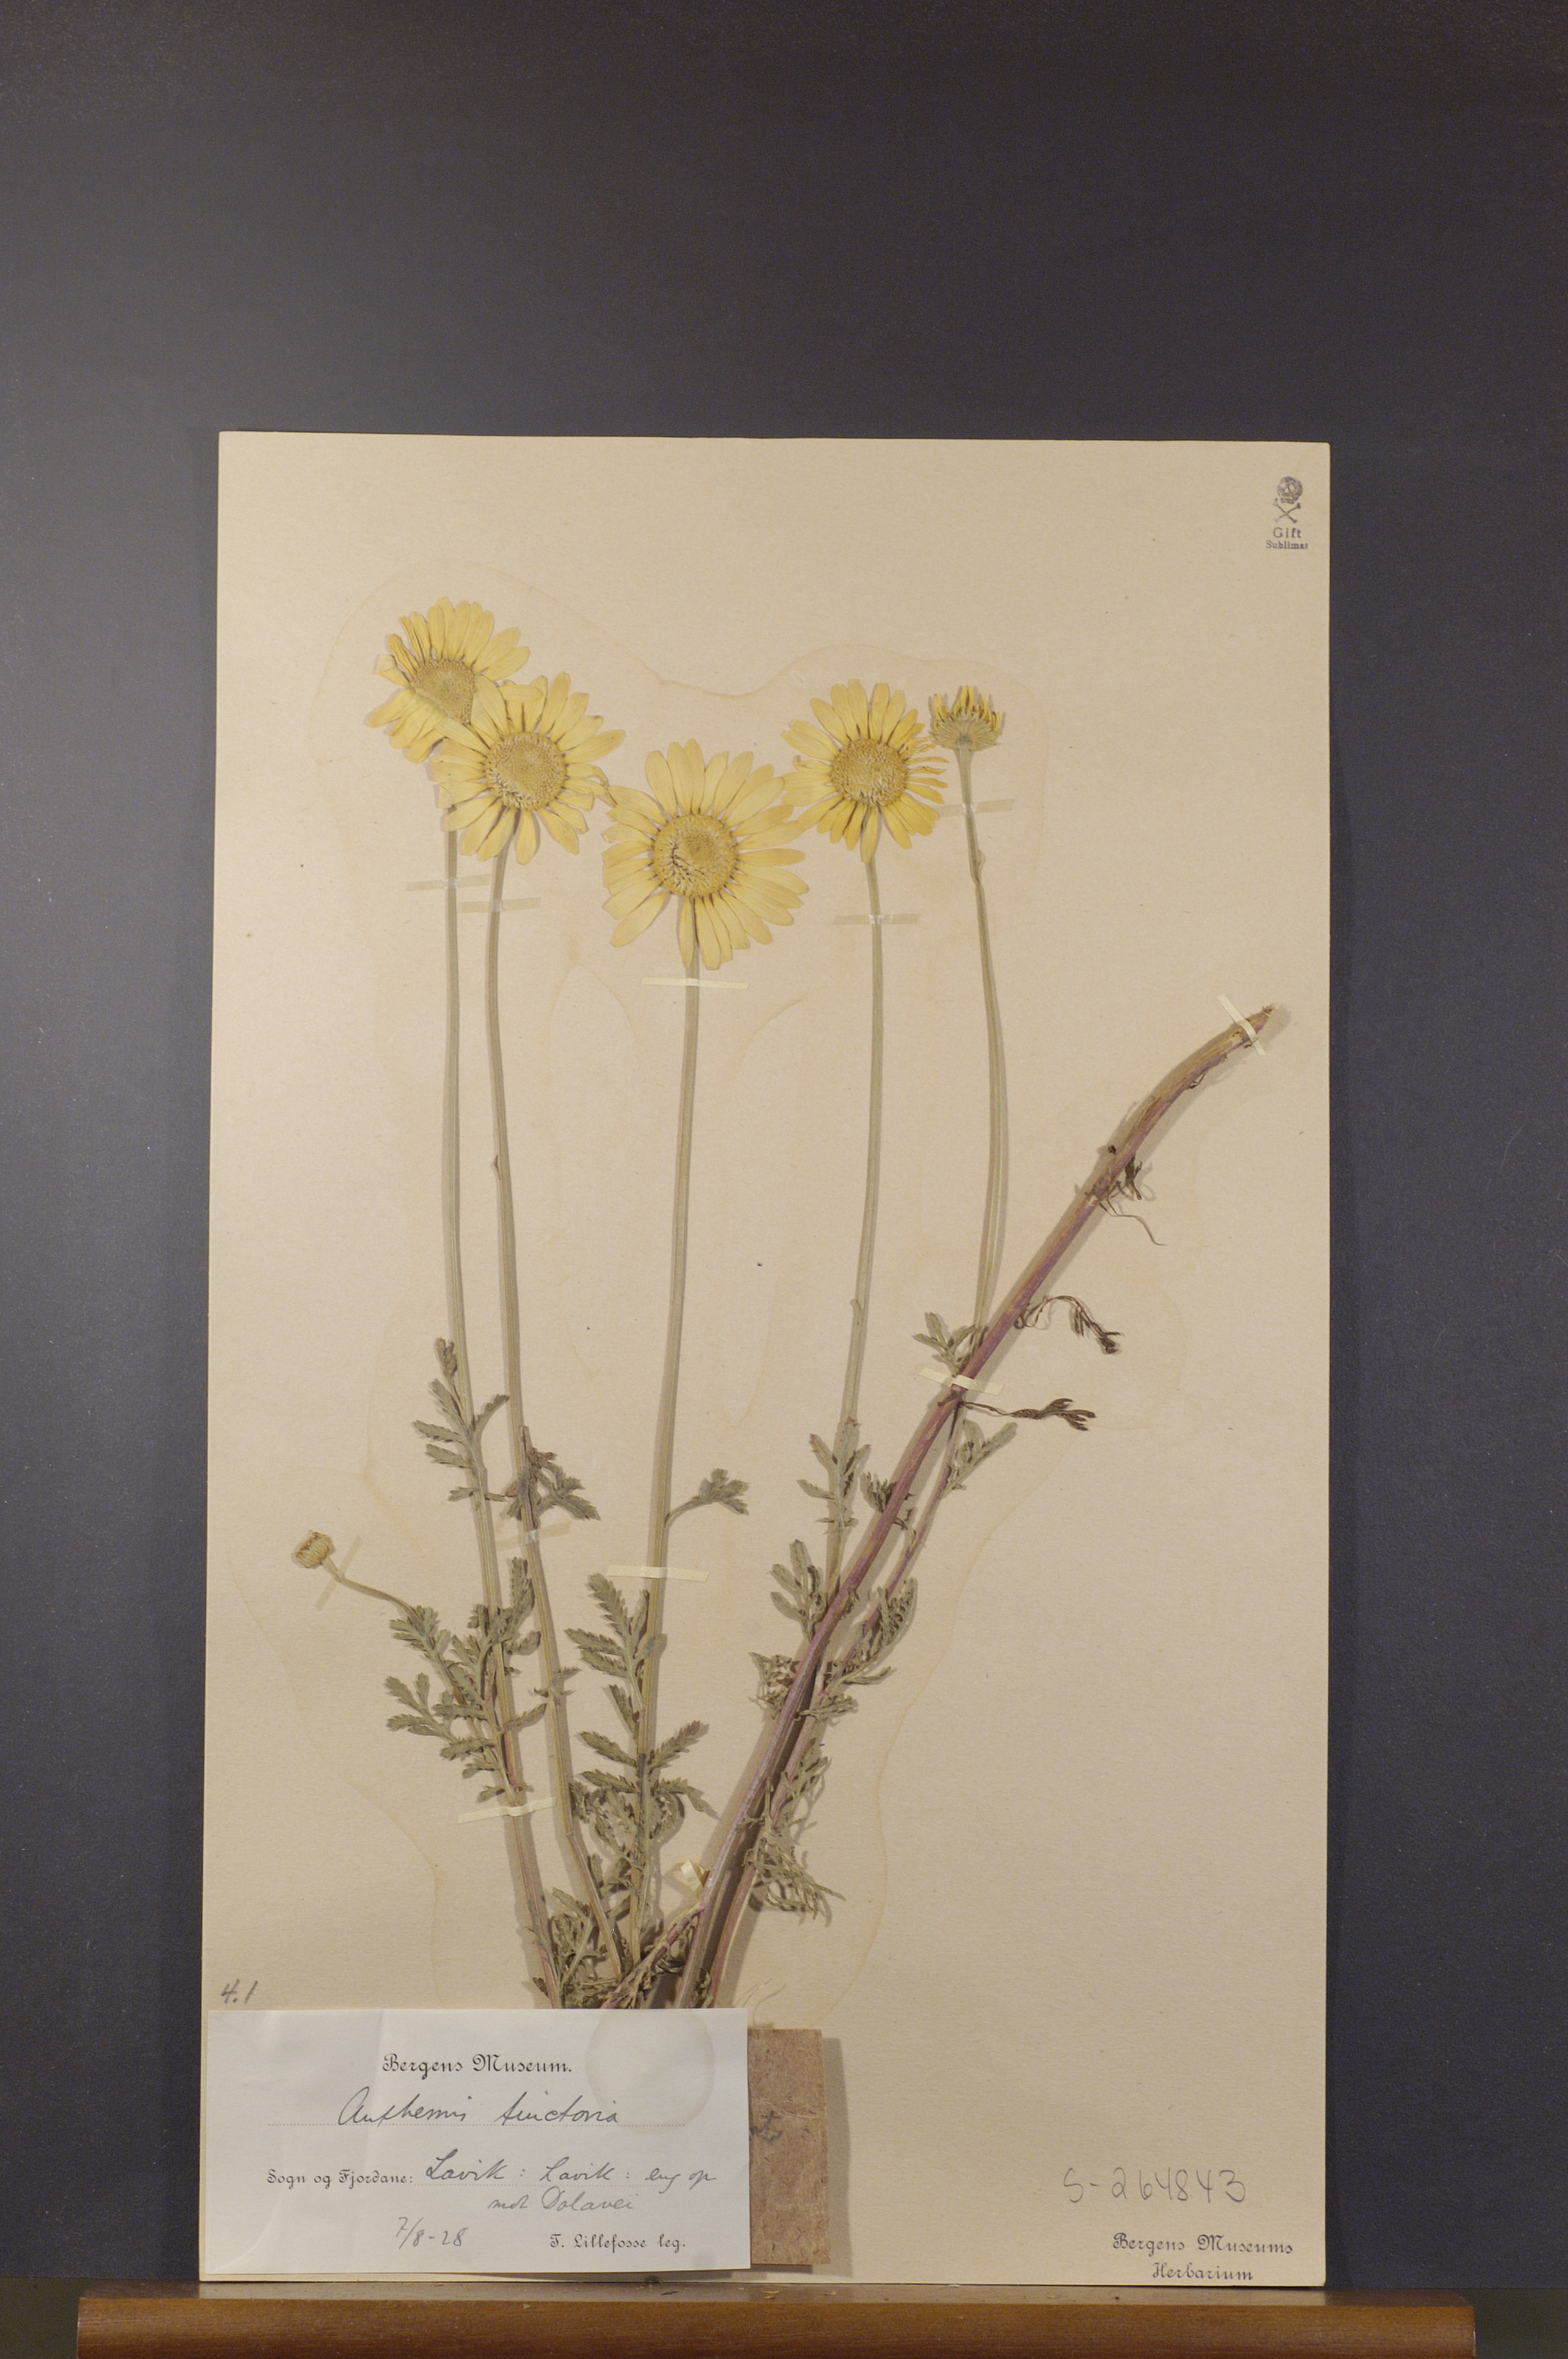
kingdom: Plantae
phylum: Tracheophyta
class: Magnoliopsida
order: Asterales
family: Asteraceae
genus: Cota
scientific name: Cota tinctoria
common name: Golden chamomile
